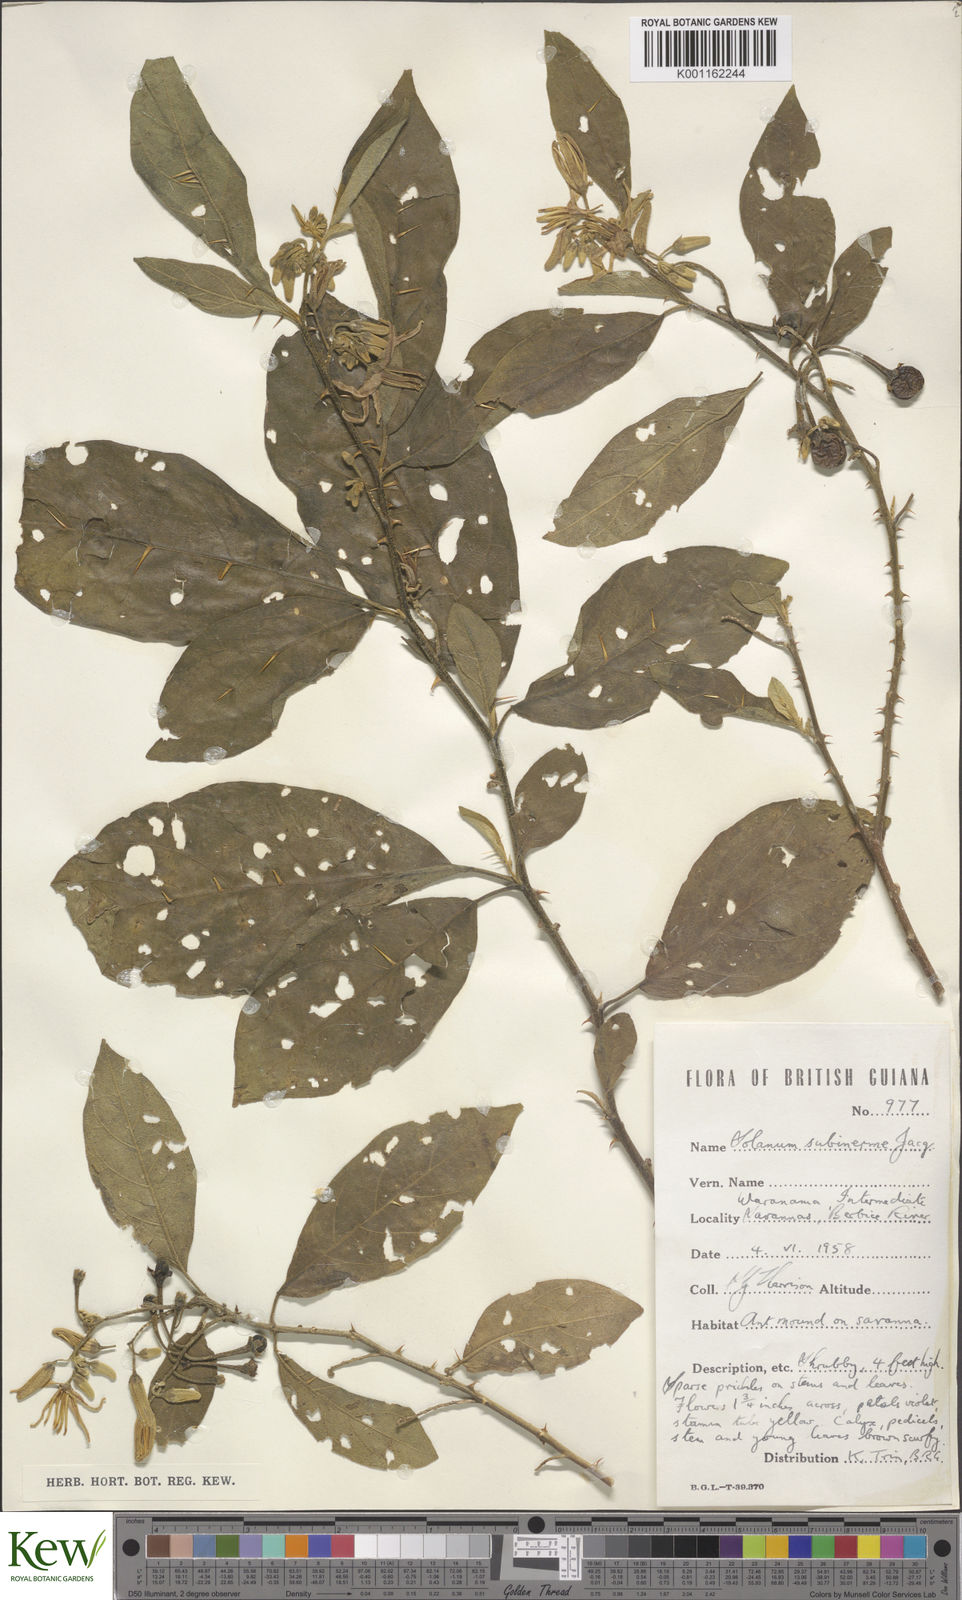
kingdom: Plantae
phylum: Tracheophyta
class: Magnoliopsida
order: Solanales
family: Solanaceae
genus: Solanum
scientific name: Solanum subinerme
